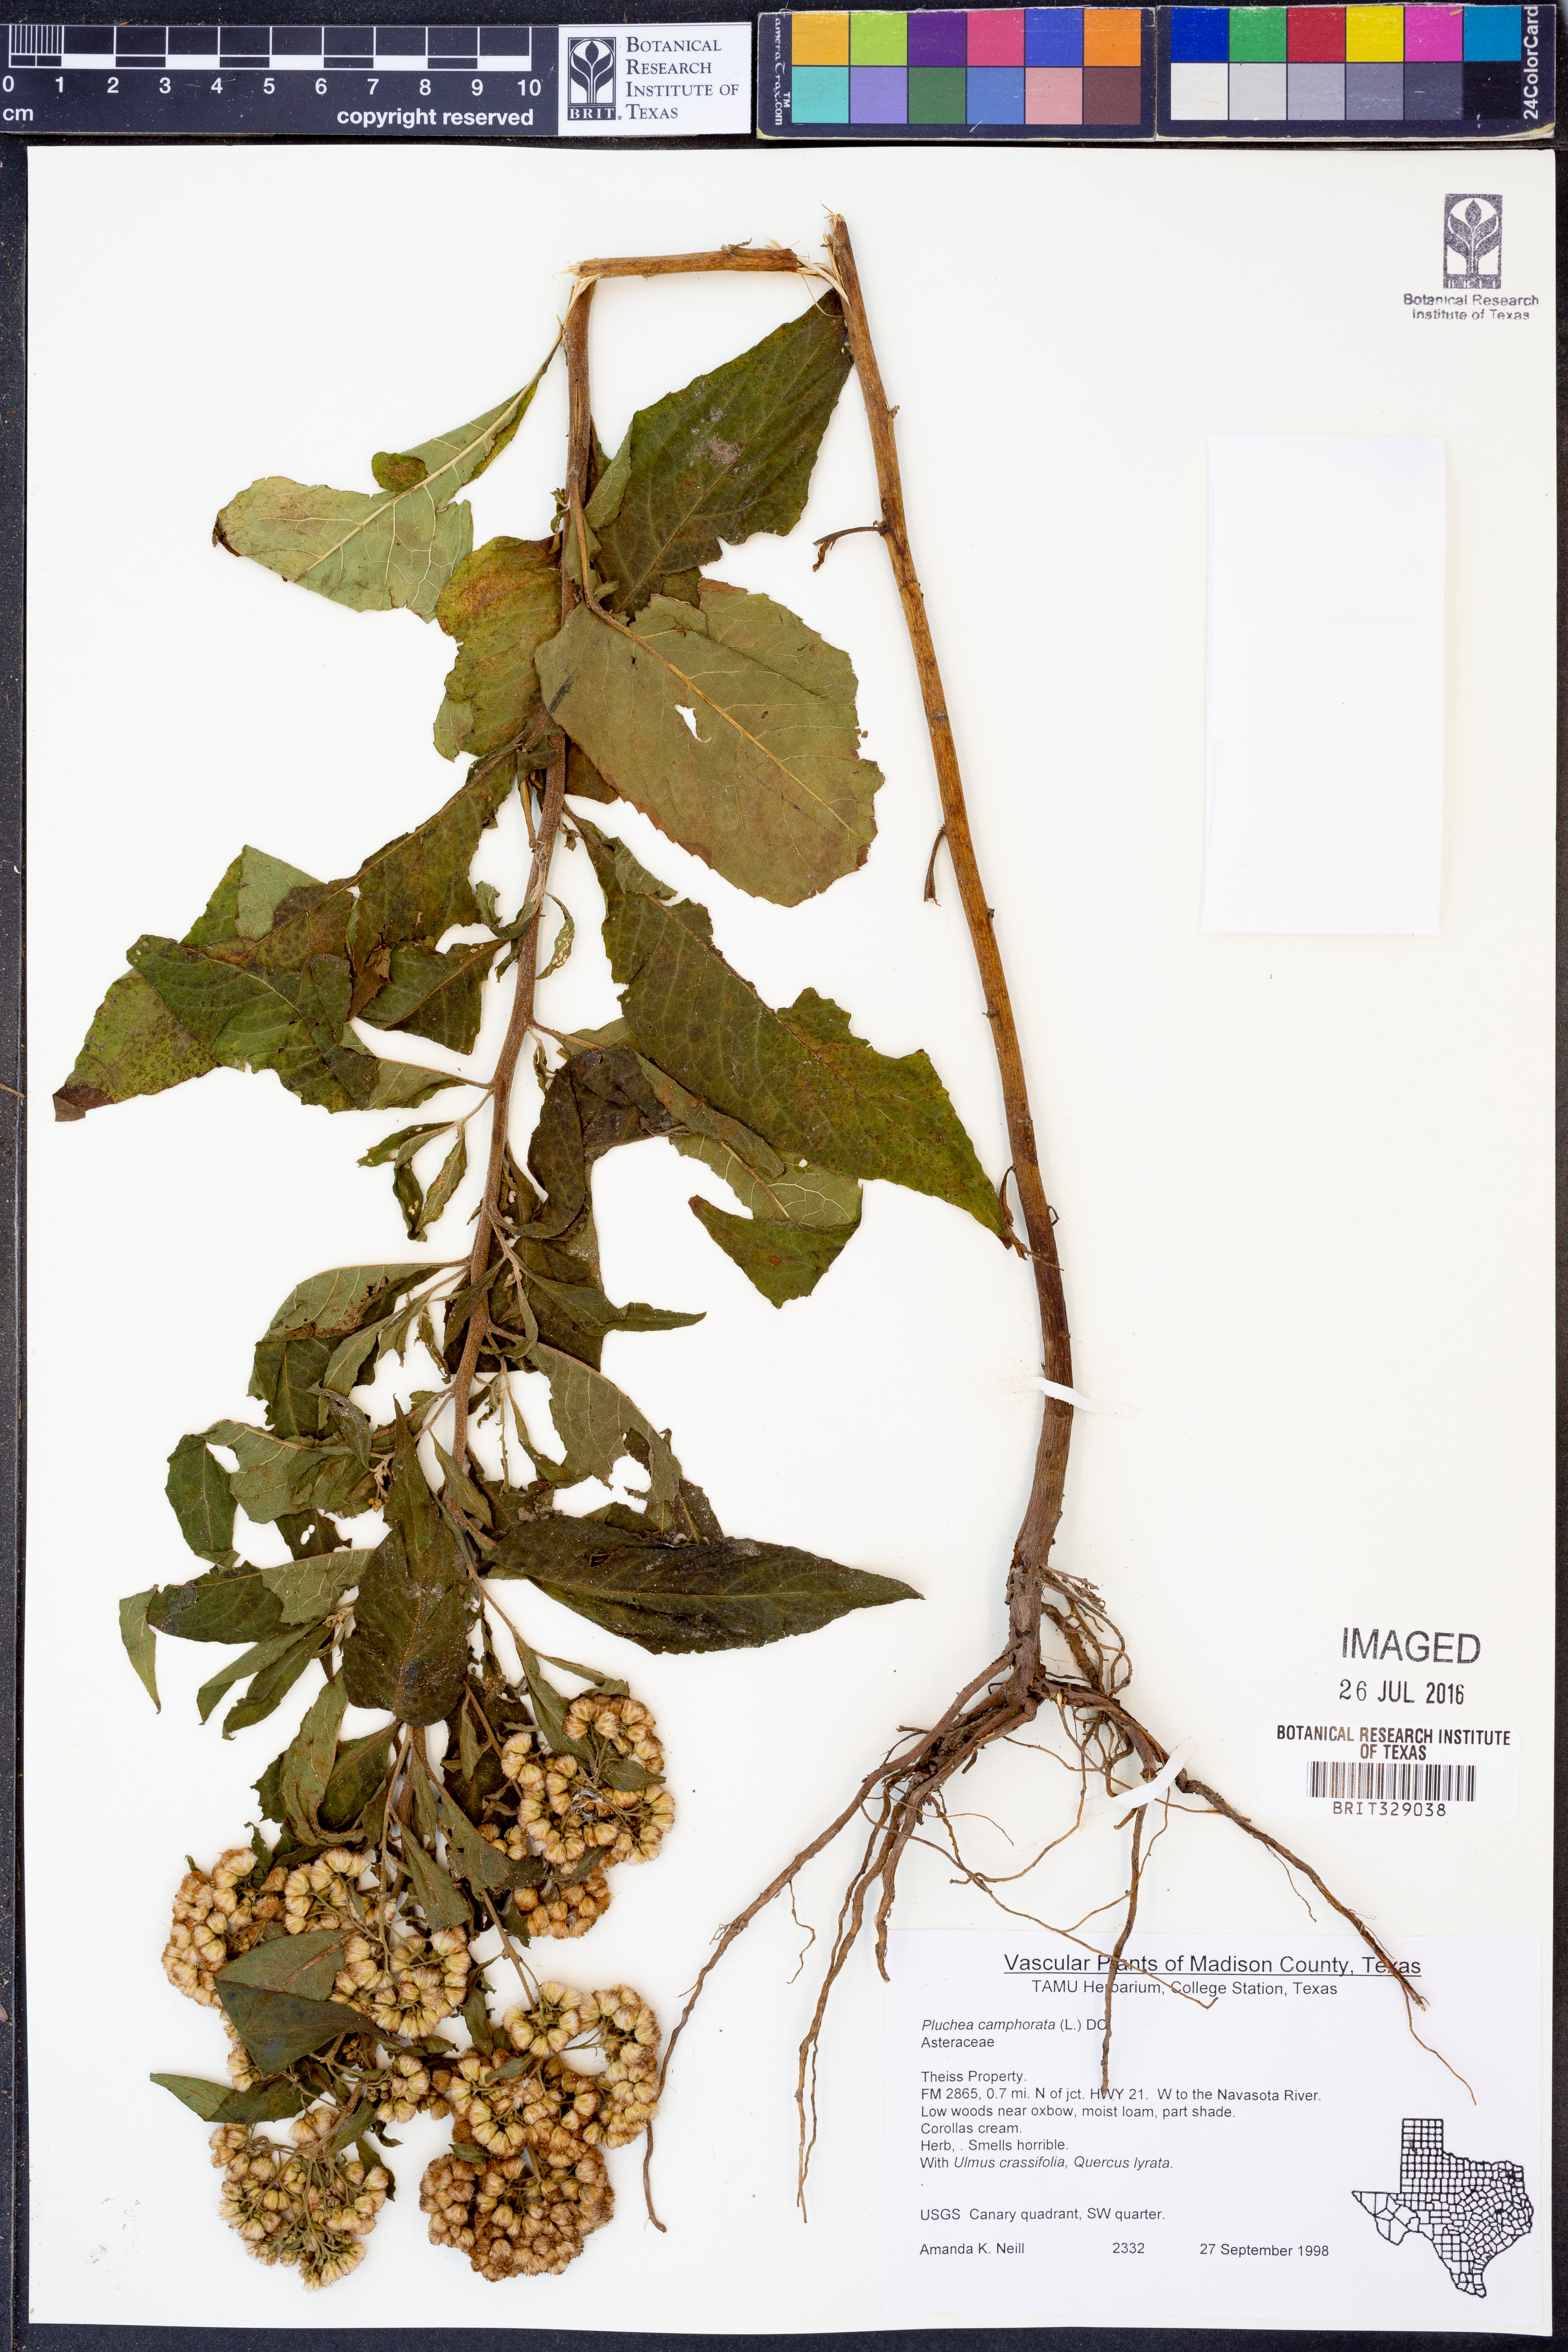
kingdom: Plantae
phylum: Tracheophyta
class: Magnoliopsida
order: Asterales
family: Asteraceae
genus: Pluchea
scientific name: Pluchea camphorata
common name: Camphor pluchea
